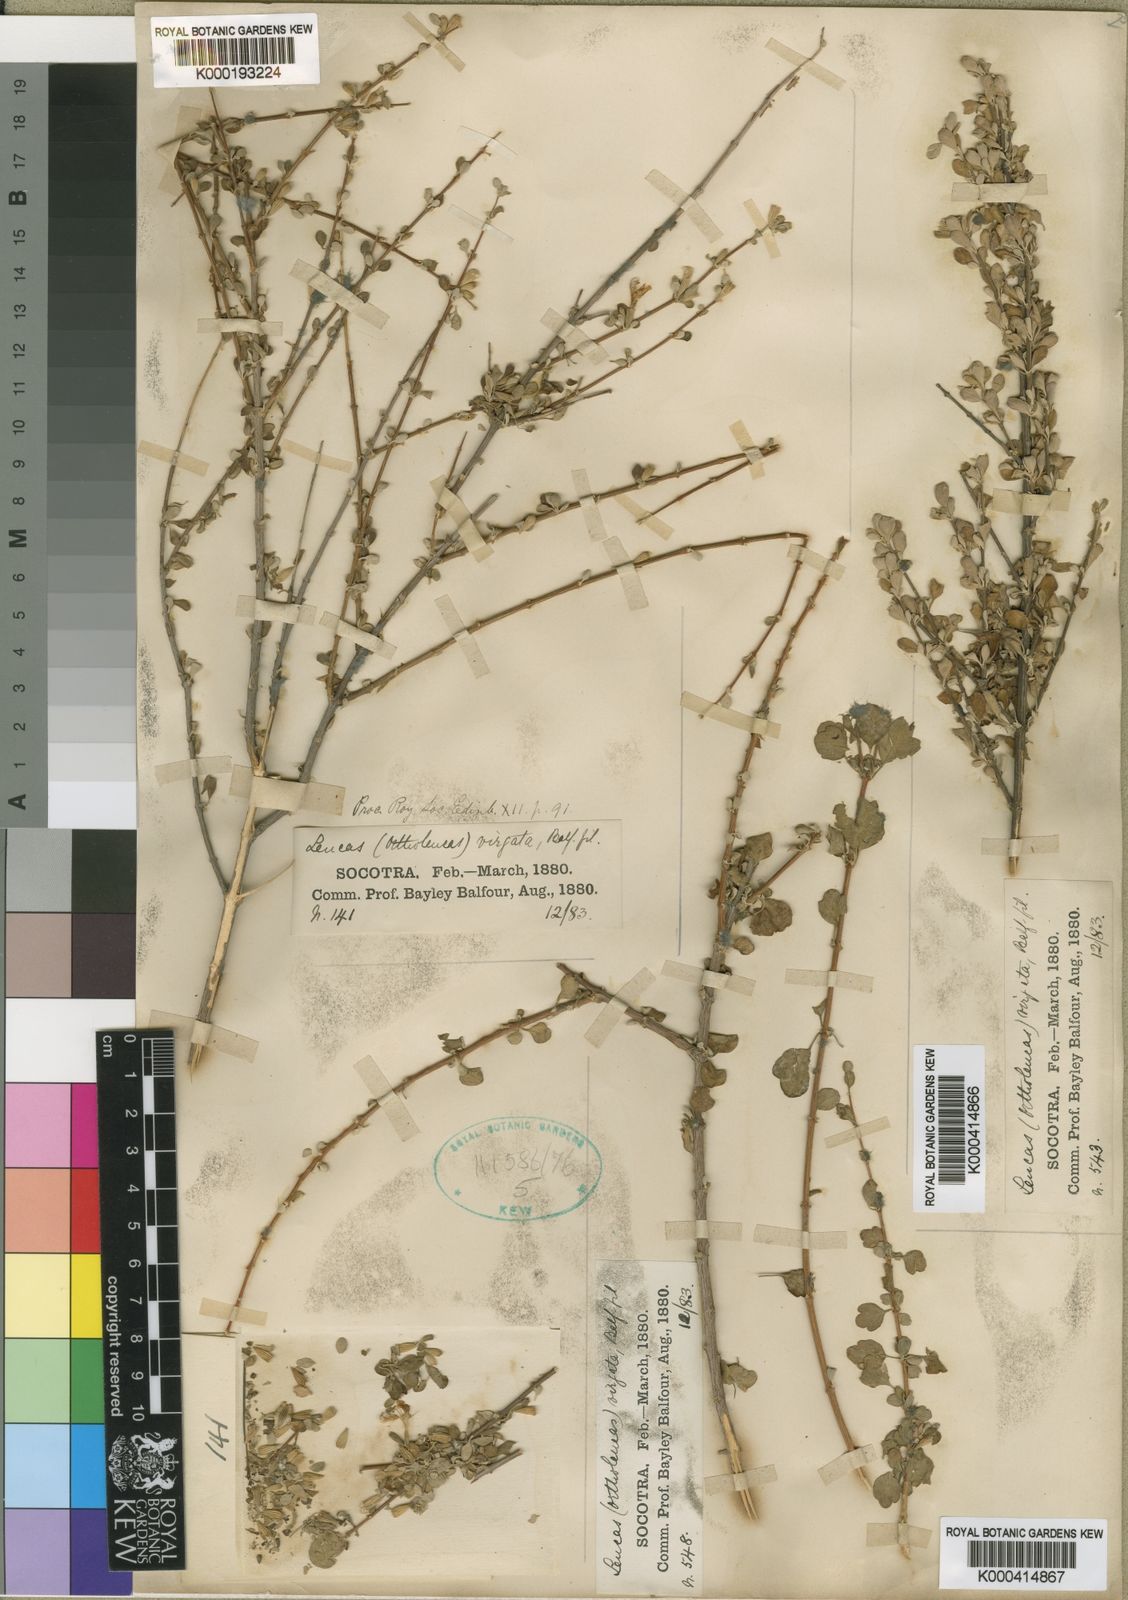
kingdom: Plantae
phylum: Tracheophyta
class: Magnoliopsida
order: Lamiales
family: Lamiaceae
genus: Leucas
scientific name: Leucas virgata
